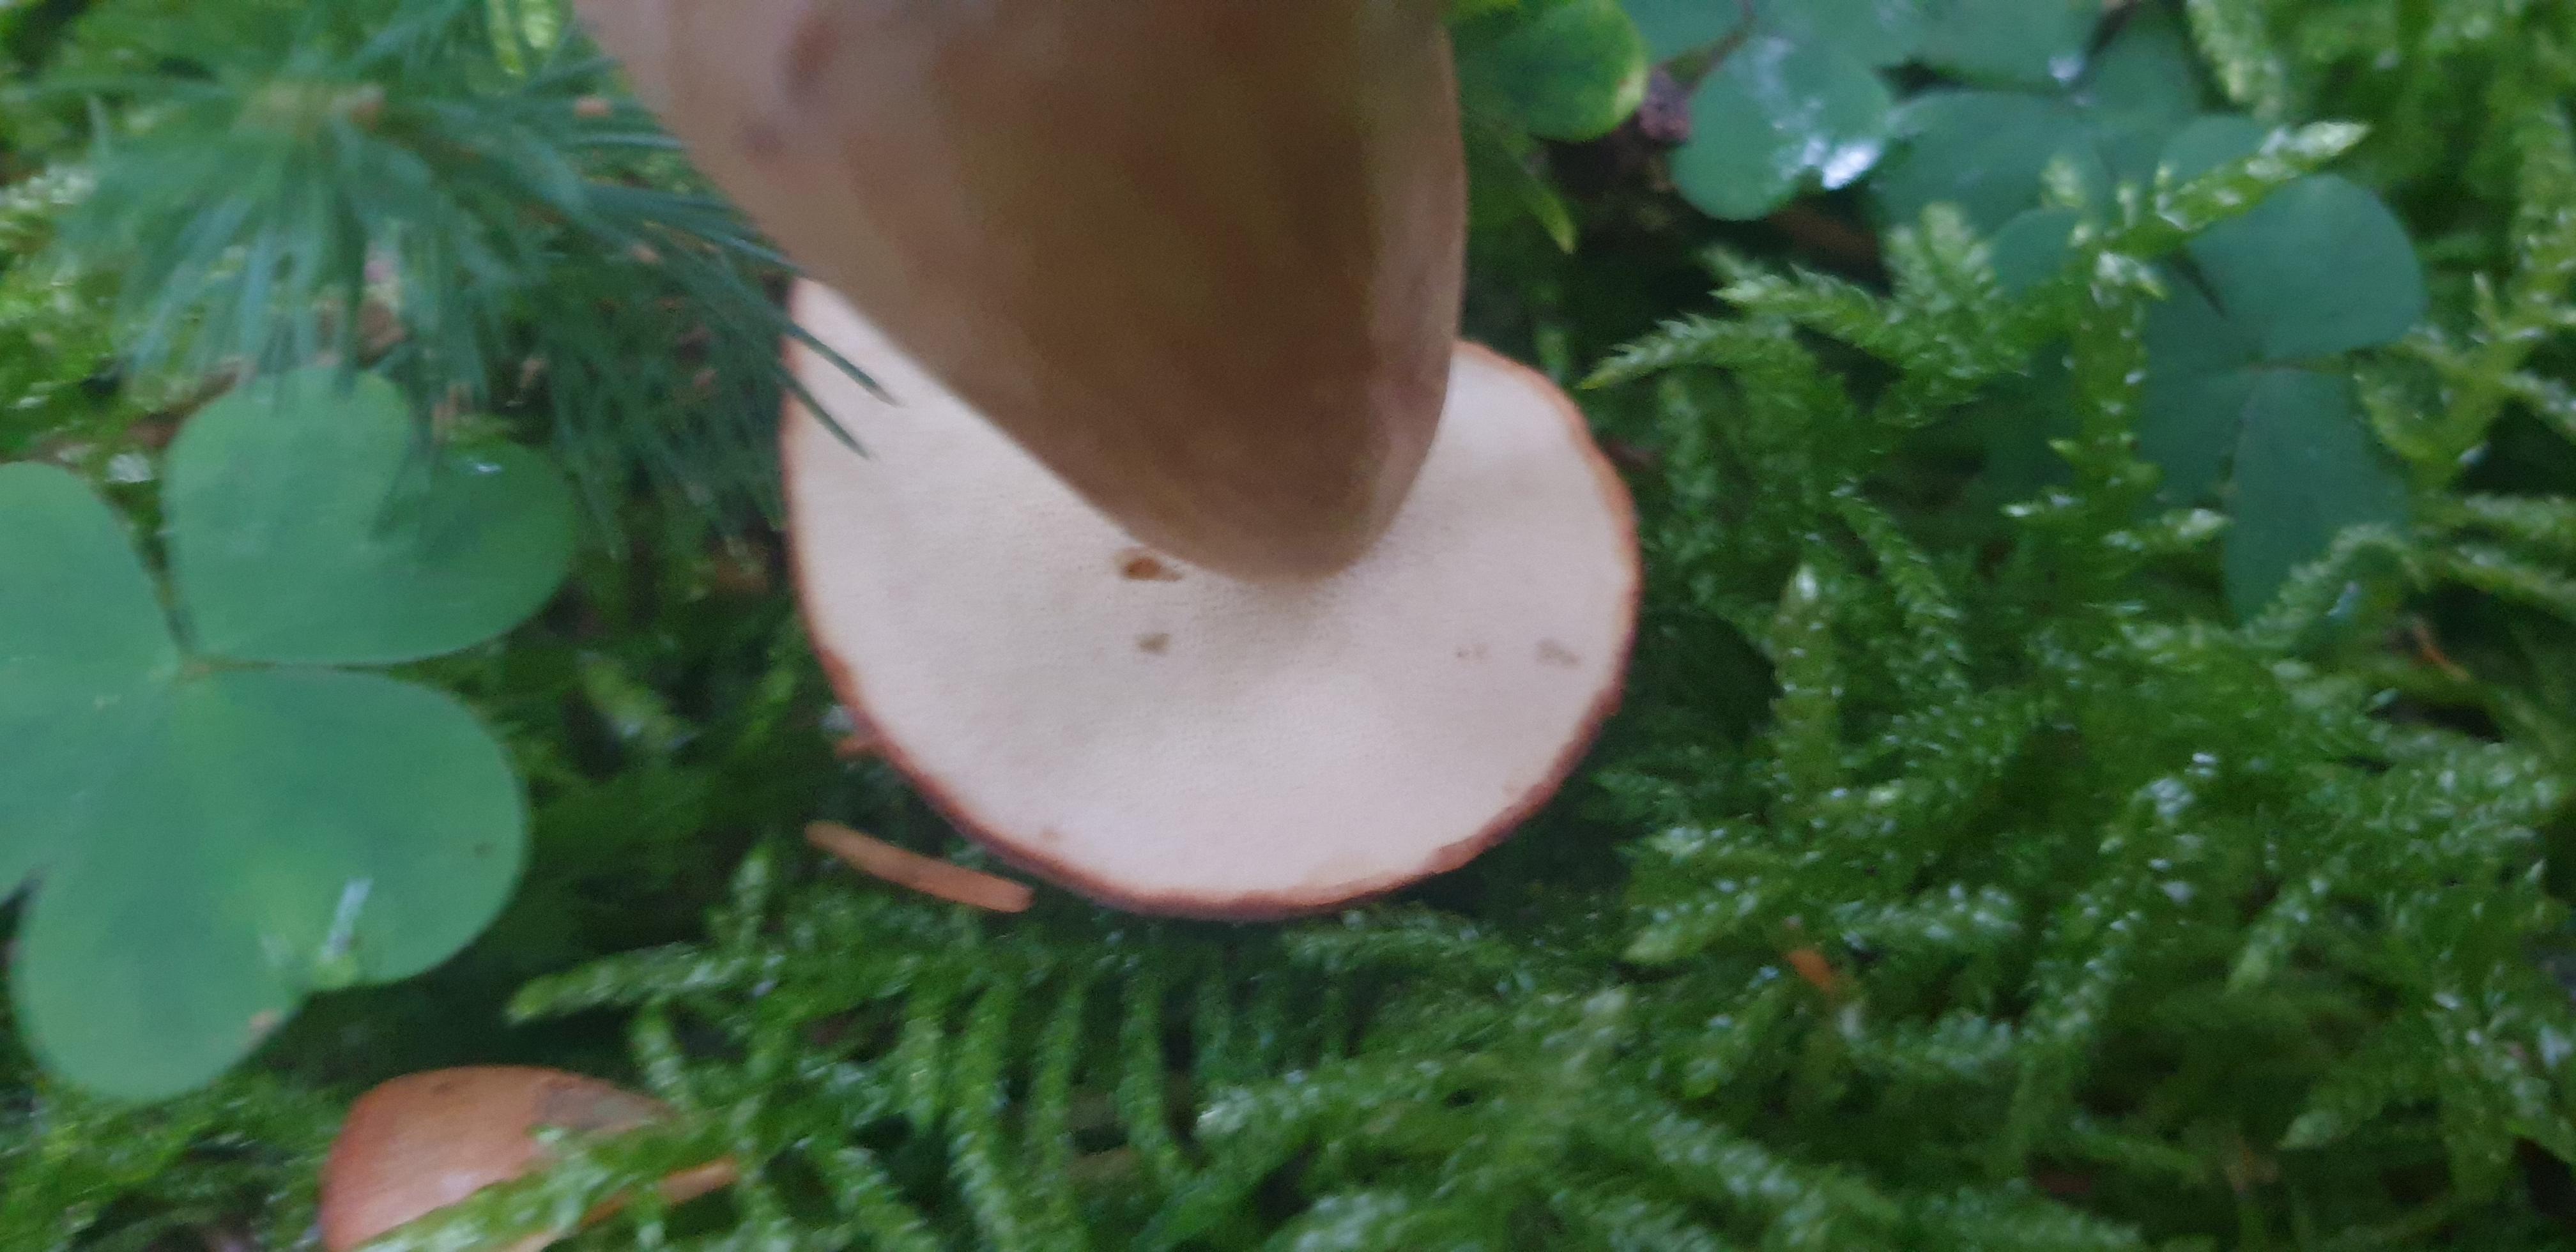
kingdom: Fungi
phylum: Basidiomycota
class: Agaricomycetes
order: Boletales
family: Boletaceae
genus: Imleria
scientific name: Imleria badia
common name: brunstokket rørhat
